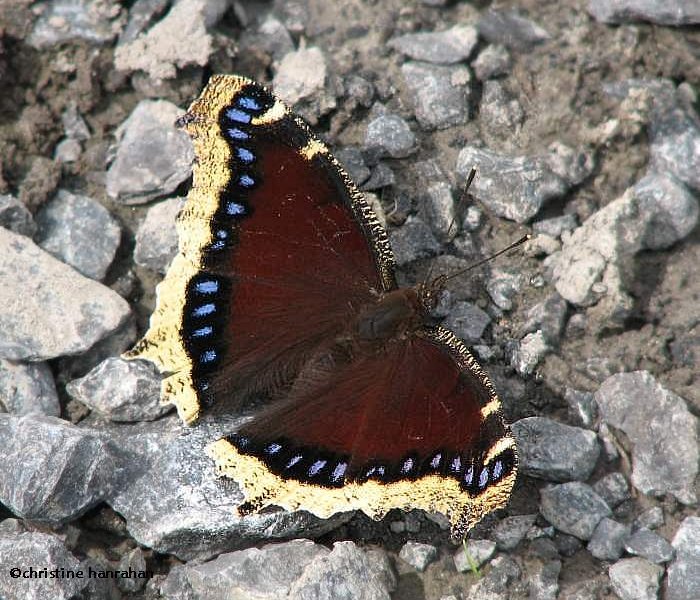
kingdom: Animalia
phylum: Arthropoda
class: Insecta
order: Lepidoptera
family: Nymphalidae
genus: Nymphalis
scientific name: Nymphalis antiopa
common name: Mourning Cloak
